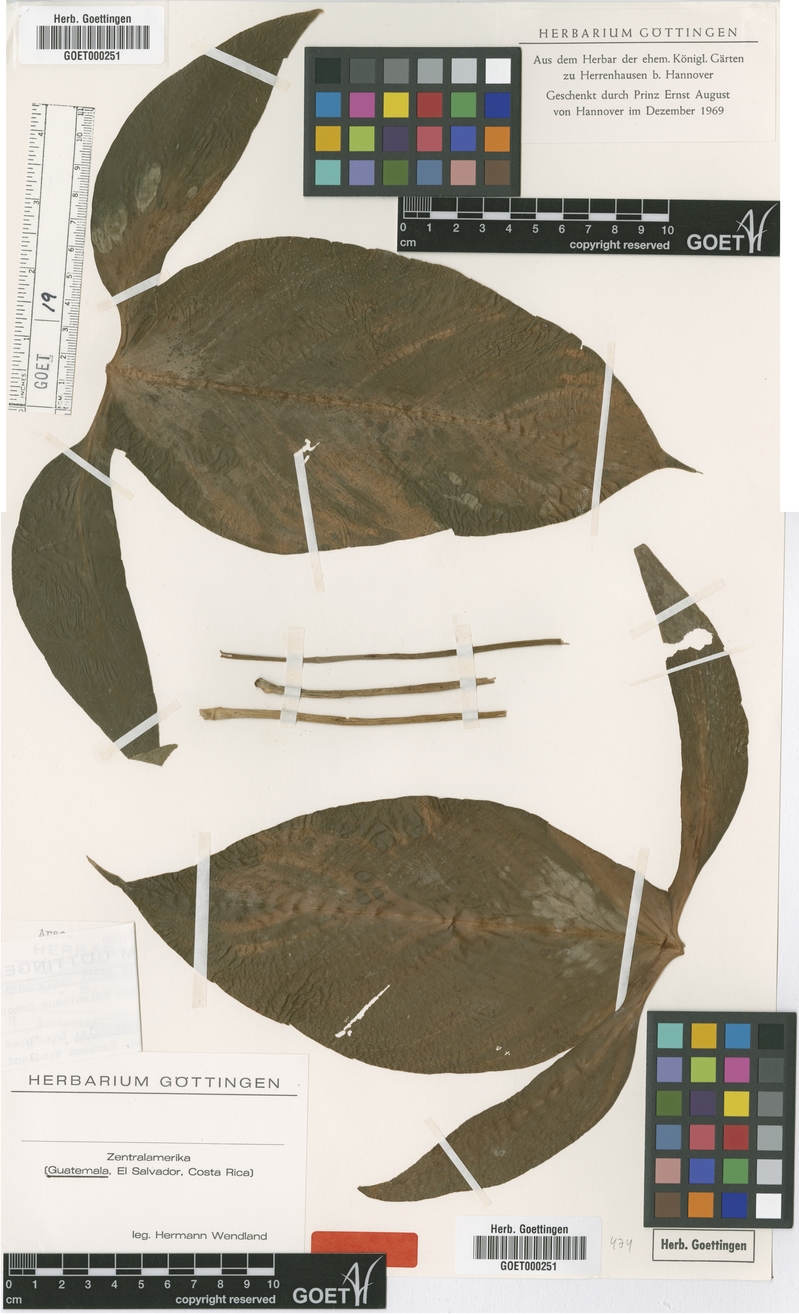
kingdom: Plantae
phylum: Tracheophyta
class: Liliopsida
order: Alismatales
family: Araceae
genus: Philodendron
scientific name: Philodendron anisotomum
